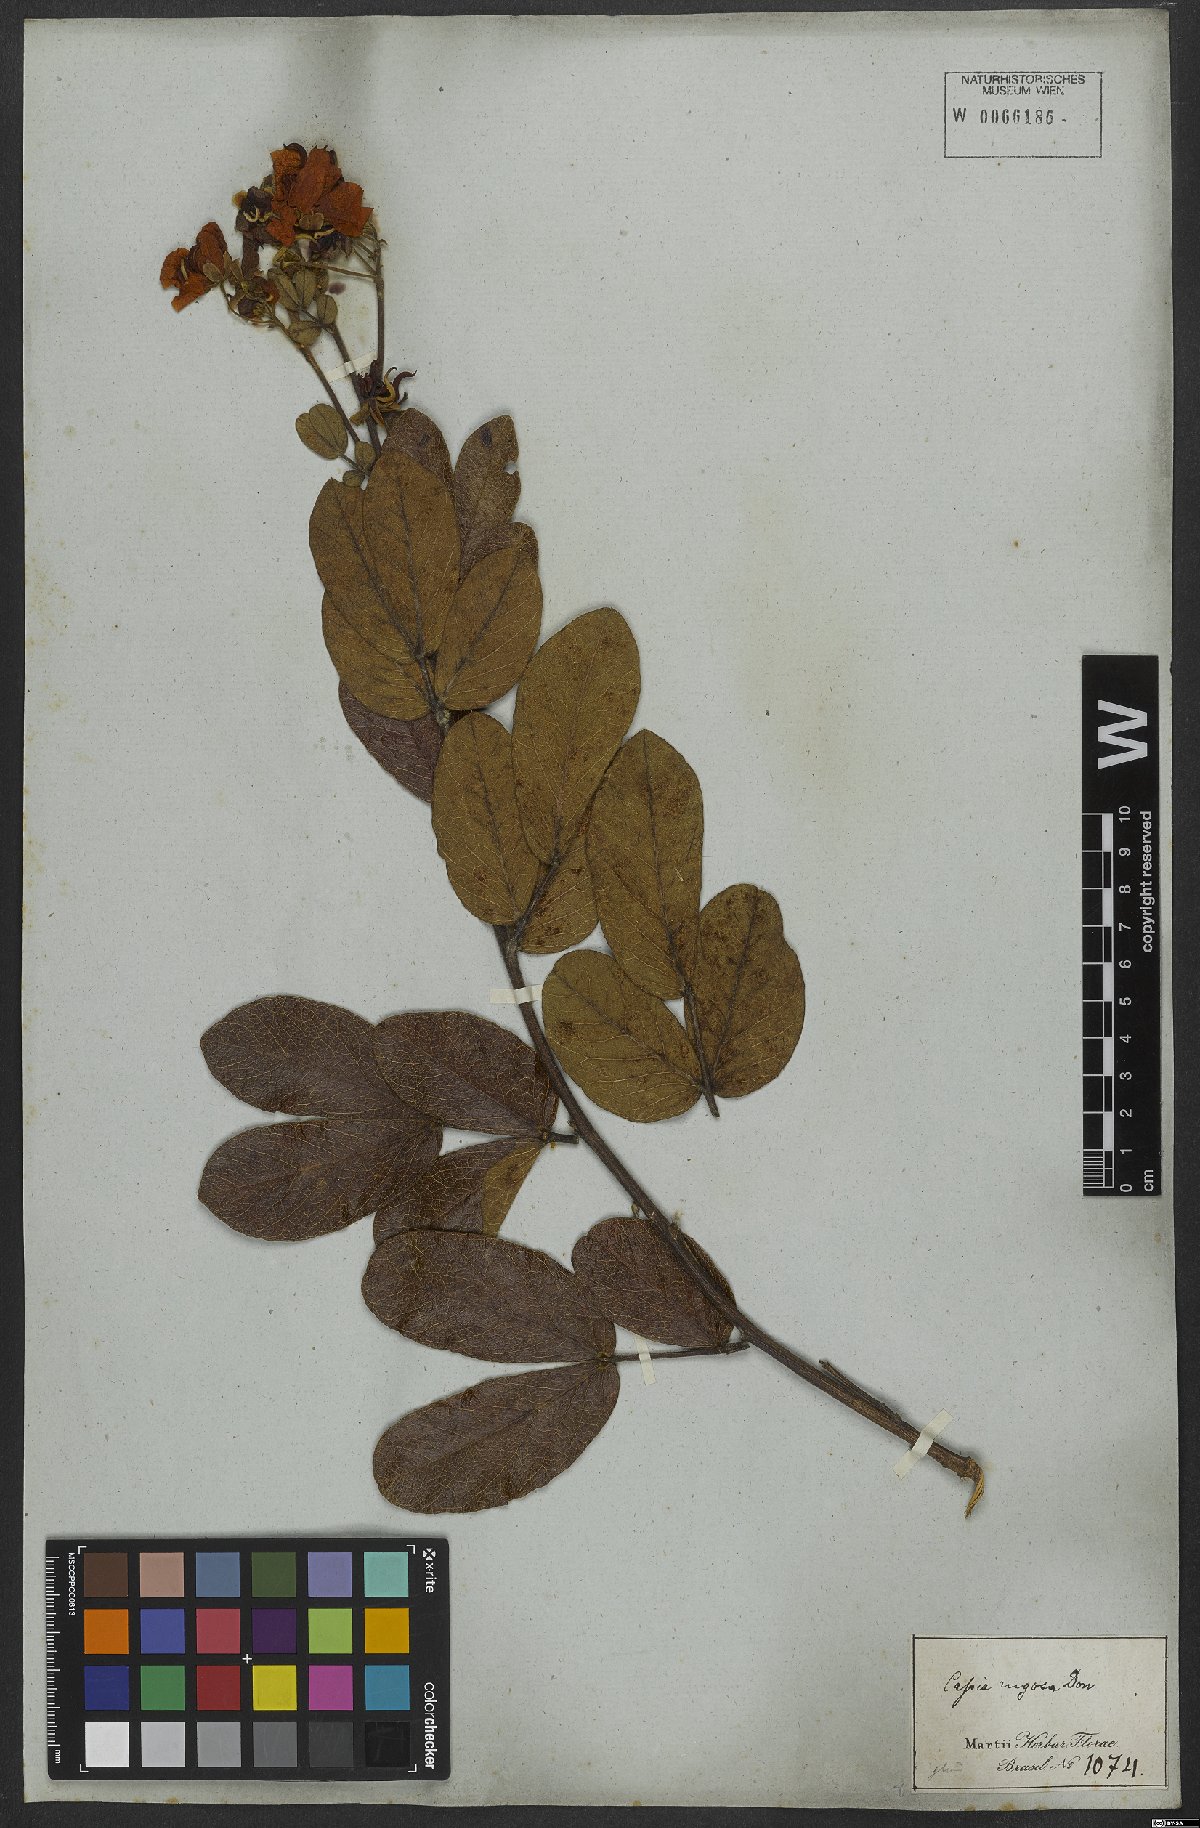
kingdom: Plantae
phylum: Tracheophyta
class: Magnoliopsida
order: Fabales
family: Fabaceae
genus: Senna
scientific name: Senna rugosa
